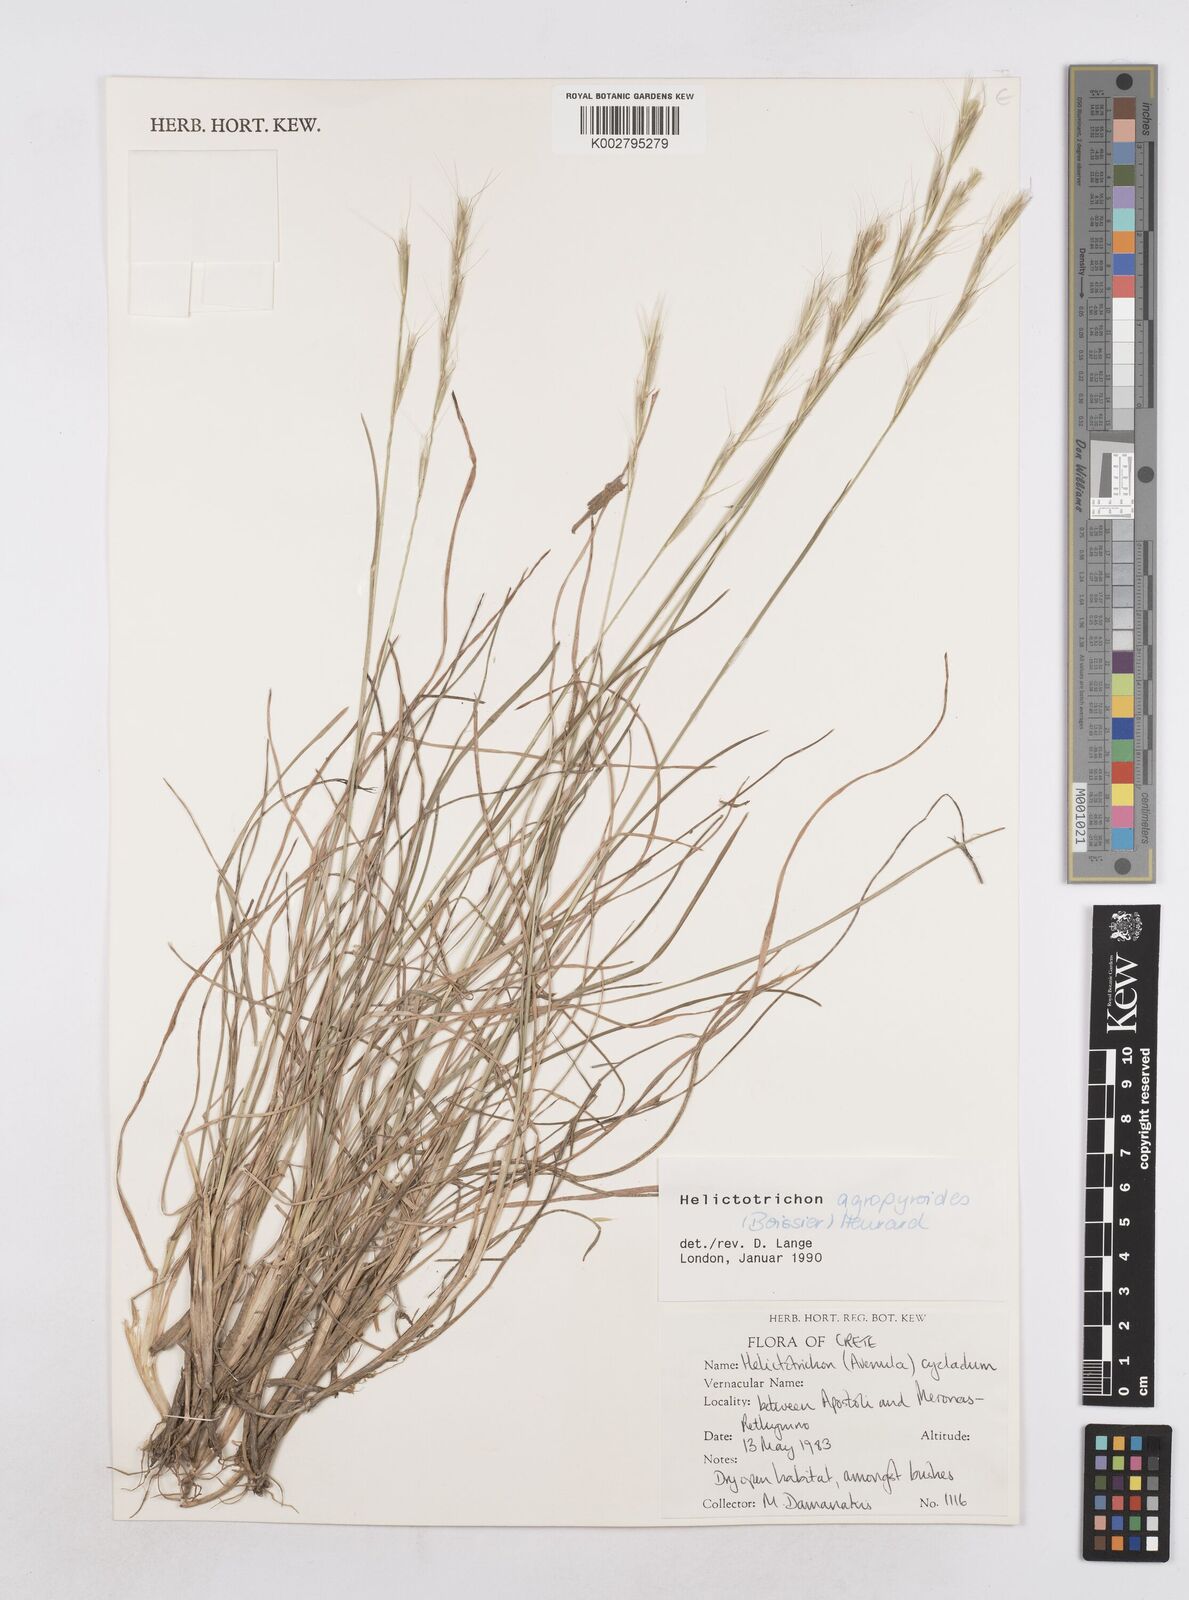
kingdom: Plantae
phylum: Tracheophyta
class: Liliopsida
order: Poales
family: Poaceae
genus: Helictochloa
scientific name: Helictochloa agropyroides
